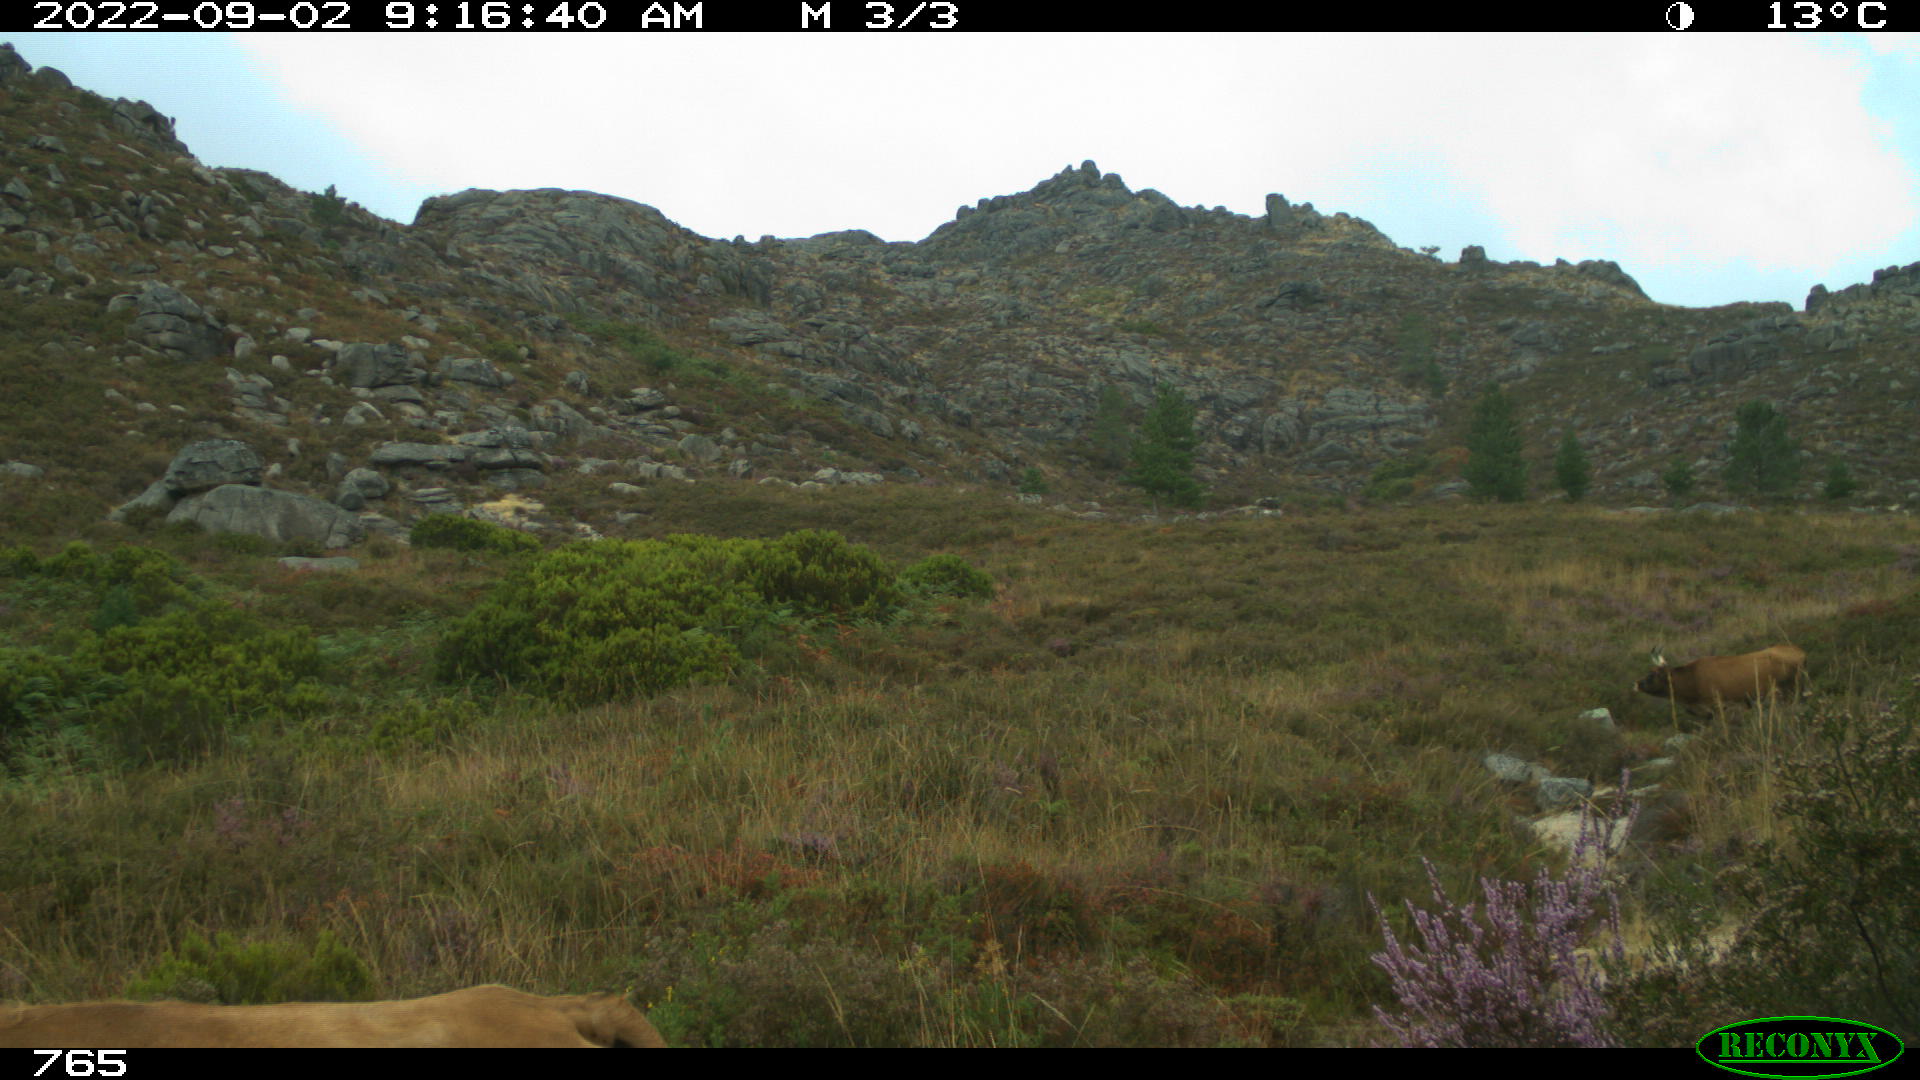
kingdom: Animalia
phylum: Chordata
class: Mammalia
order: Artiodactyla
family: Bovidae
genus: Bos
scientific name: Bos taurus
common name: Domesticated cattle
